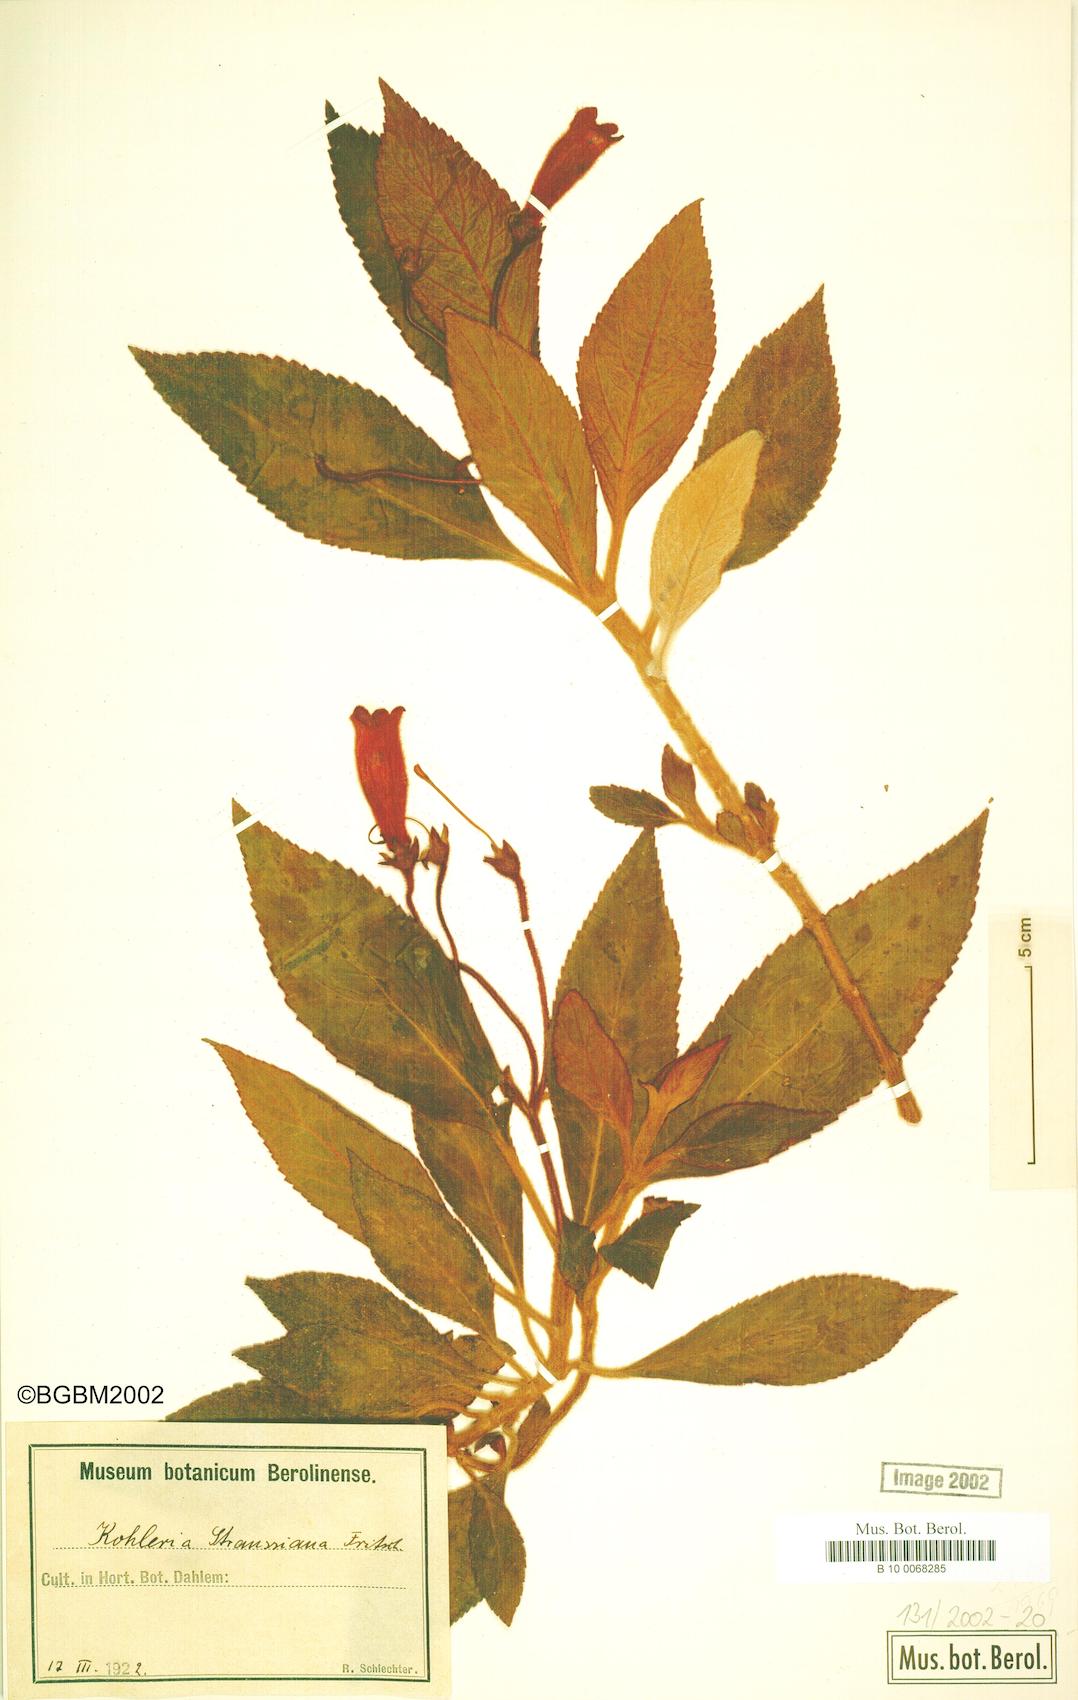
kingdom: Plantae
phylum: Tracheophyta
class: Magnoliopsida
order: Lamiales
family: Gesneriaceae
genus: Kohleria
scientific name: Kohleria hirsuta
